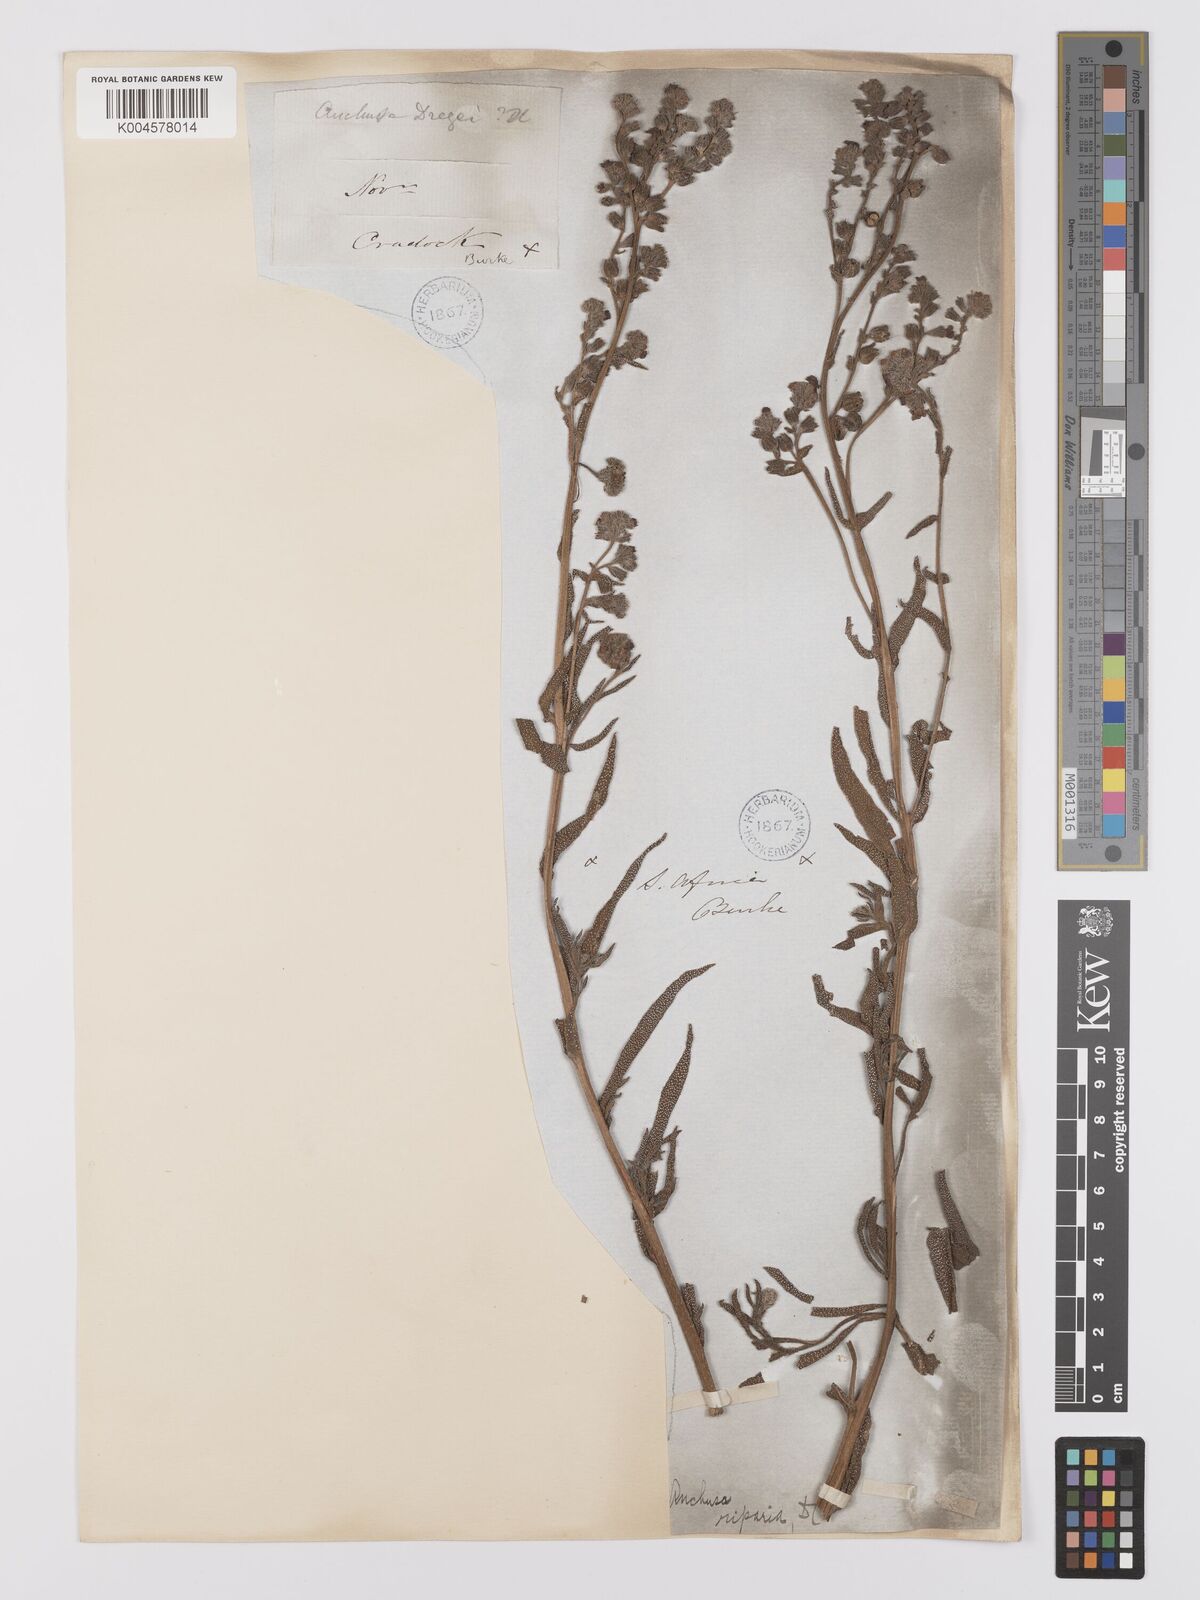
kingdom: Plantae
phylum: Tracheophyta
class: Magnoliopsida
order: Boraginales
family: Boraginaceae
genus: Anchusa
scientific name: Anchusa capensis
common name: Cape bugloss
